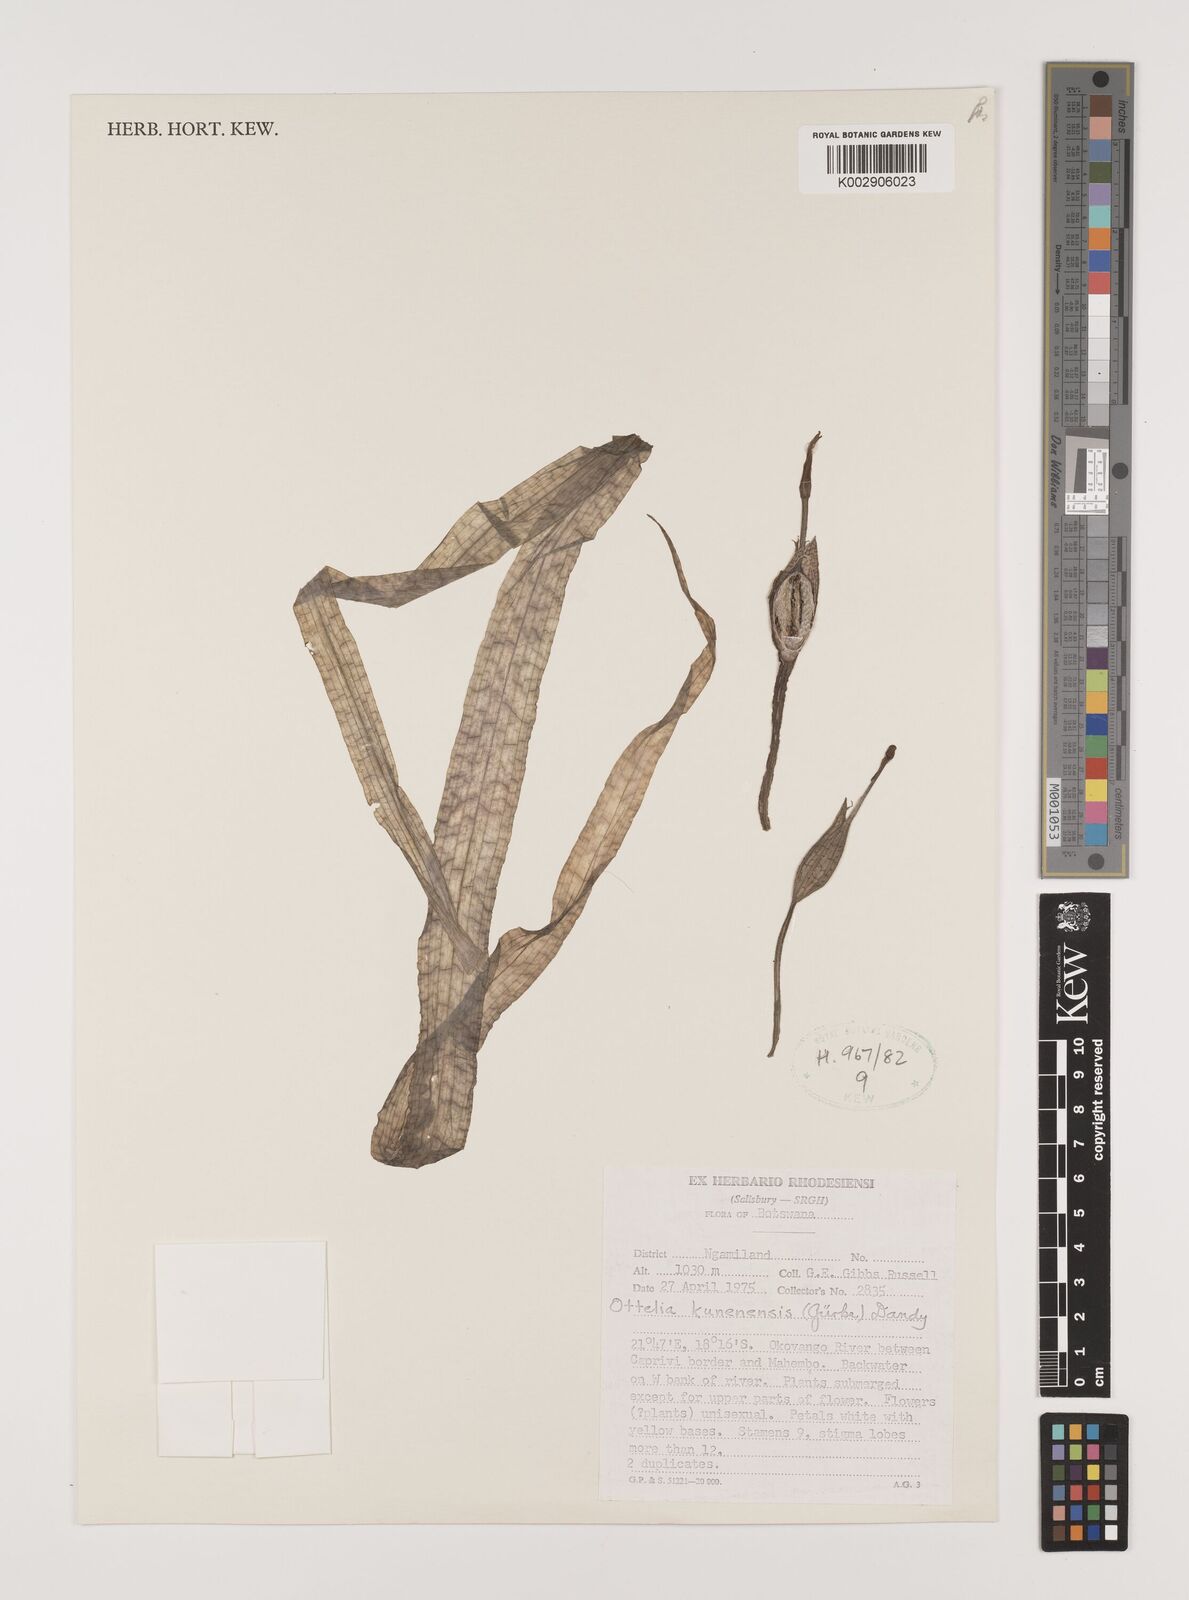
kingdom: Plantae
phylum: Tracheophyta
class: Liliopsida
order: Alismatales
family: Hydrocharitaceae
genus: Ottelia
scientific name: Ottelia kunenensis
